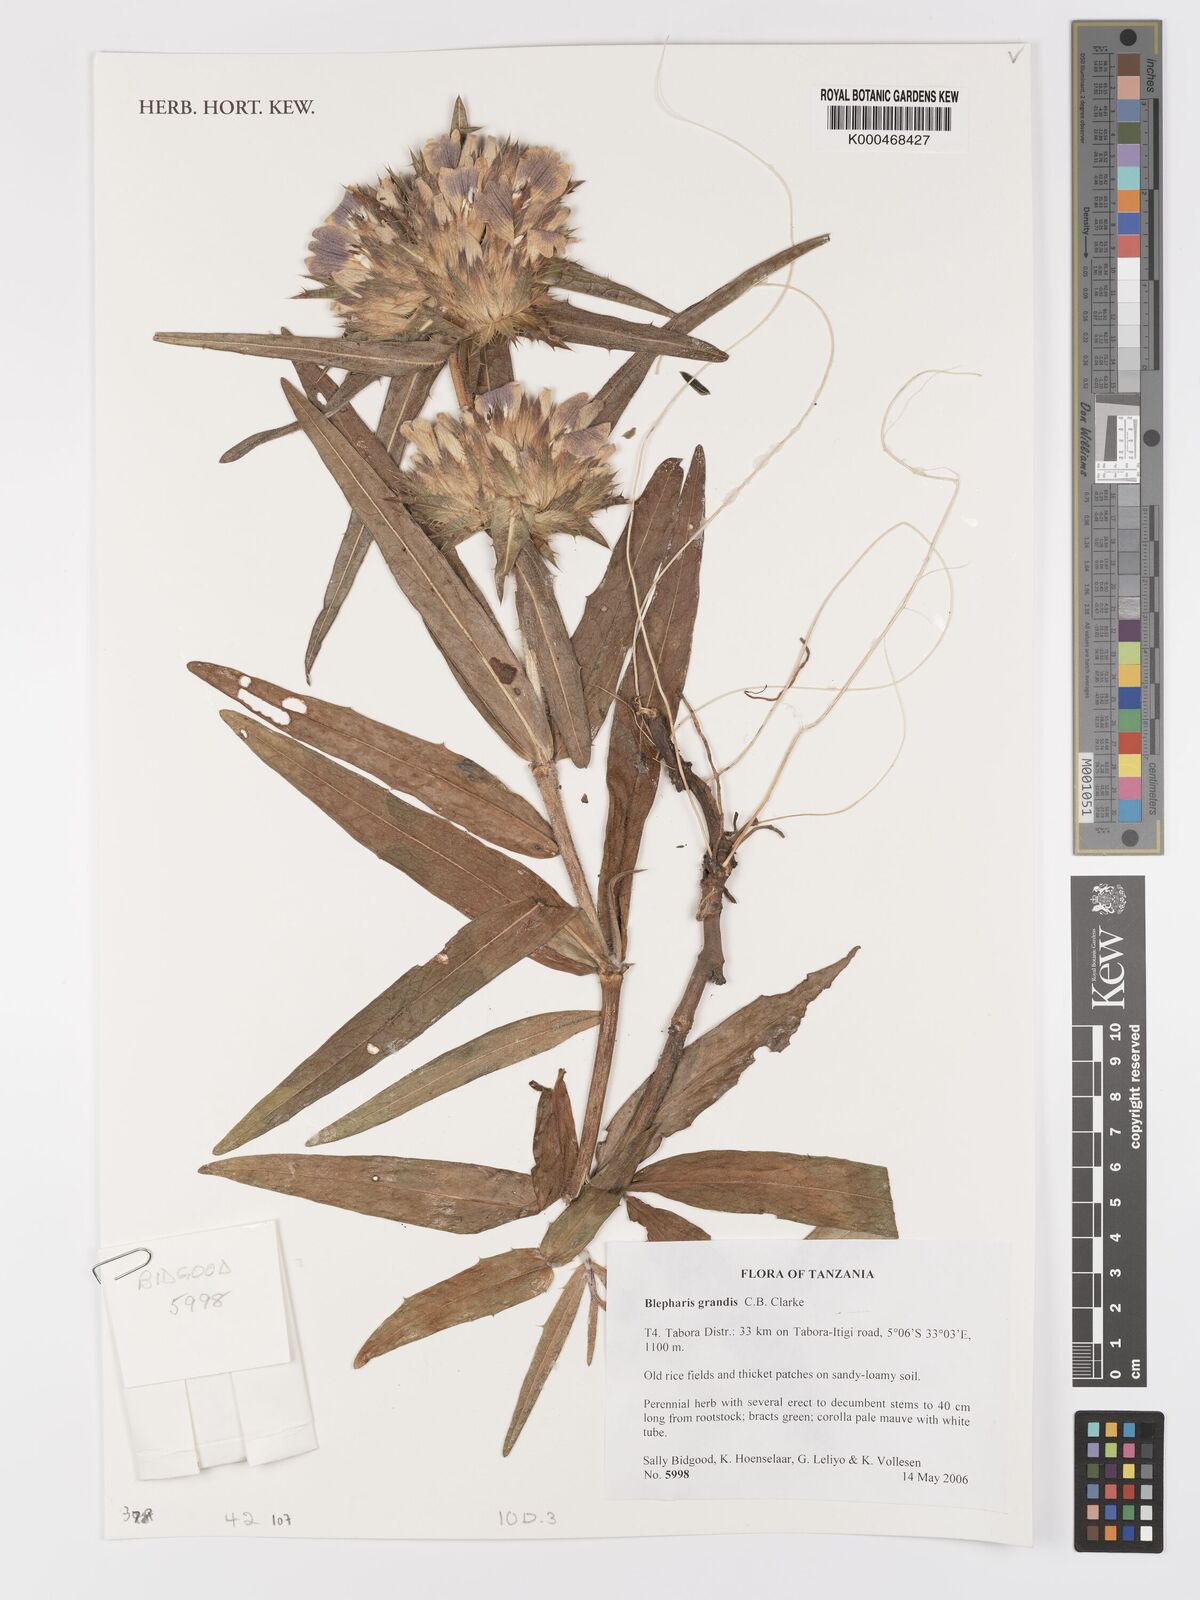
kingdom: Plantae
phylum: Tracheophyta
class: Magnoliopsida
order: Lamiales
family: Acanthaceae
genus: Blepharis
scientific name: Blepharis asteracantha
